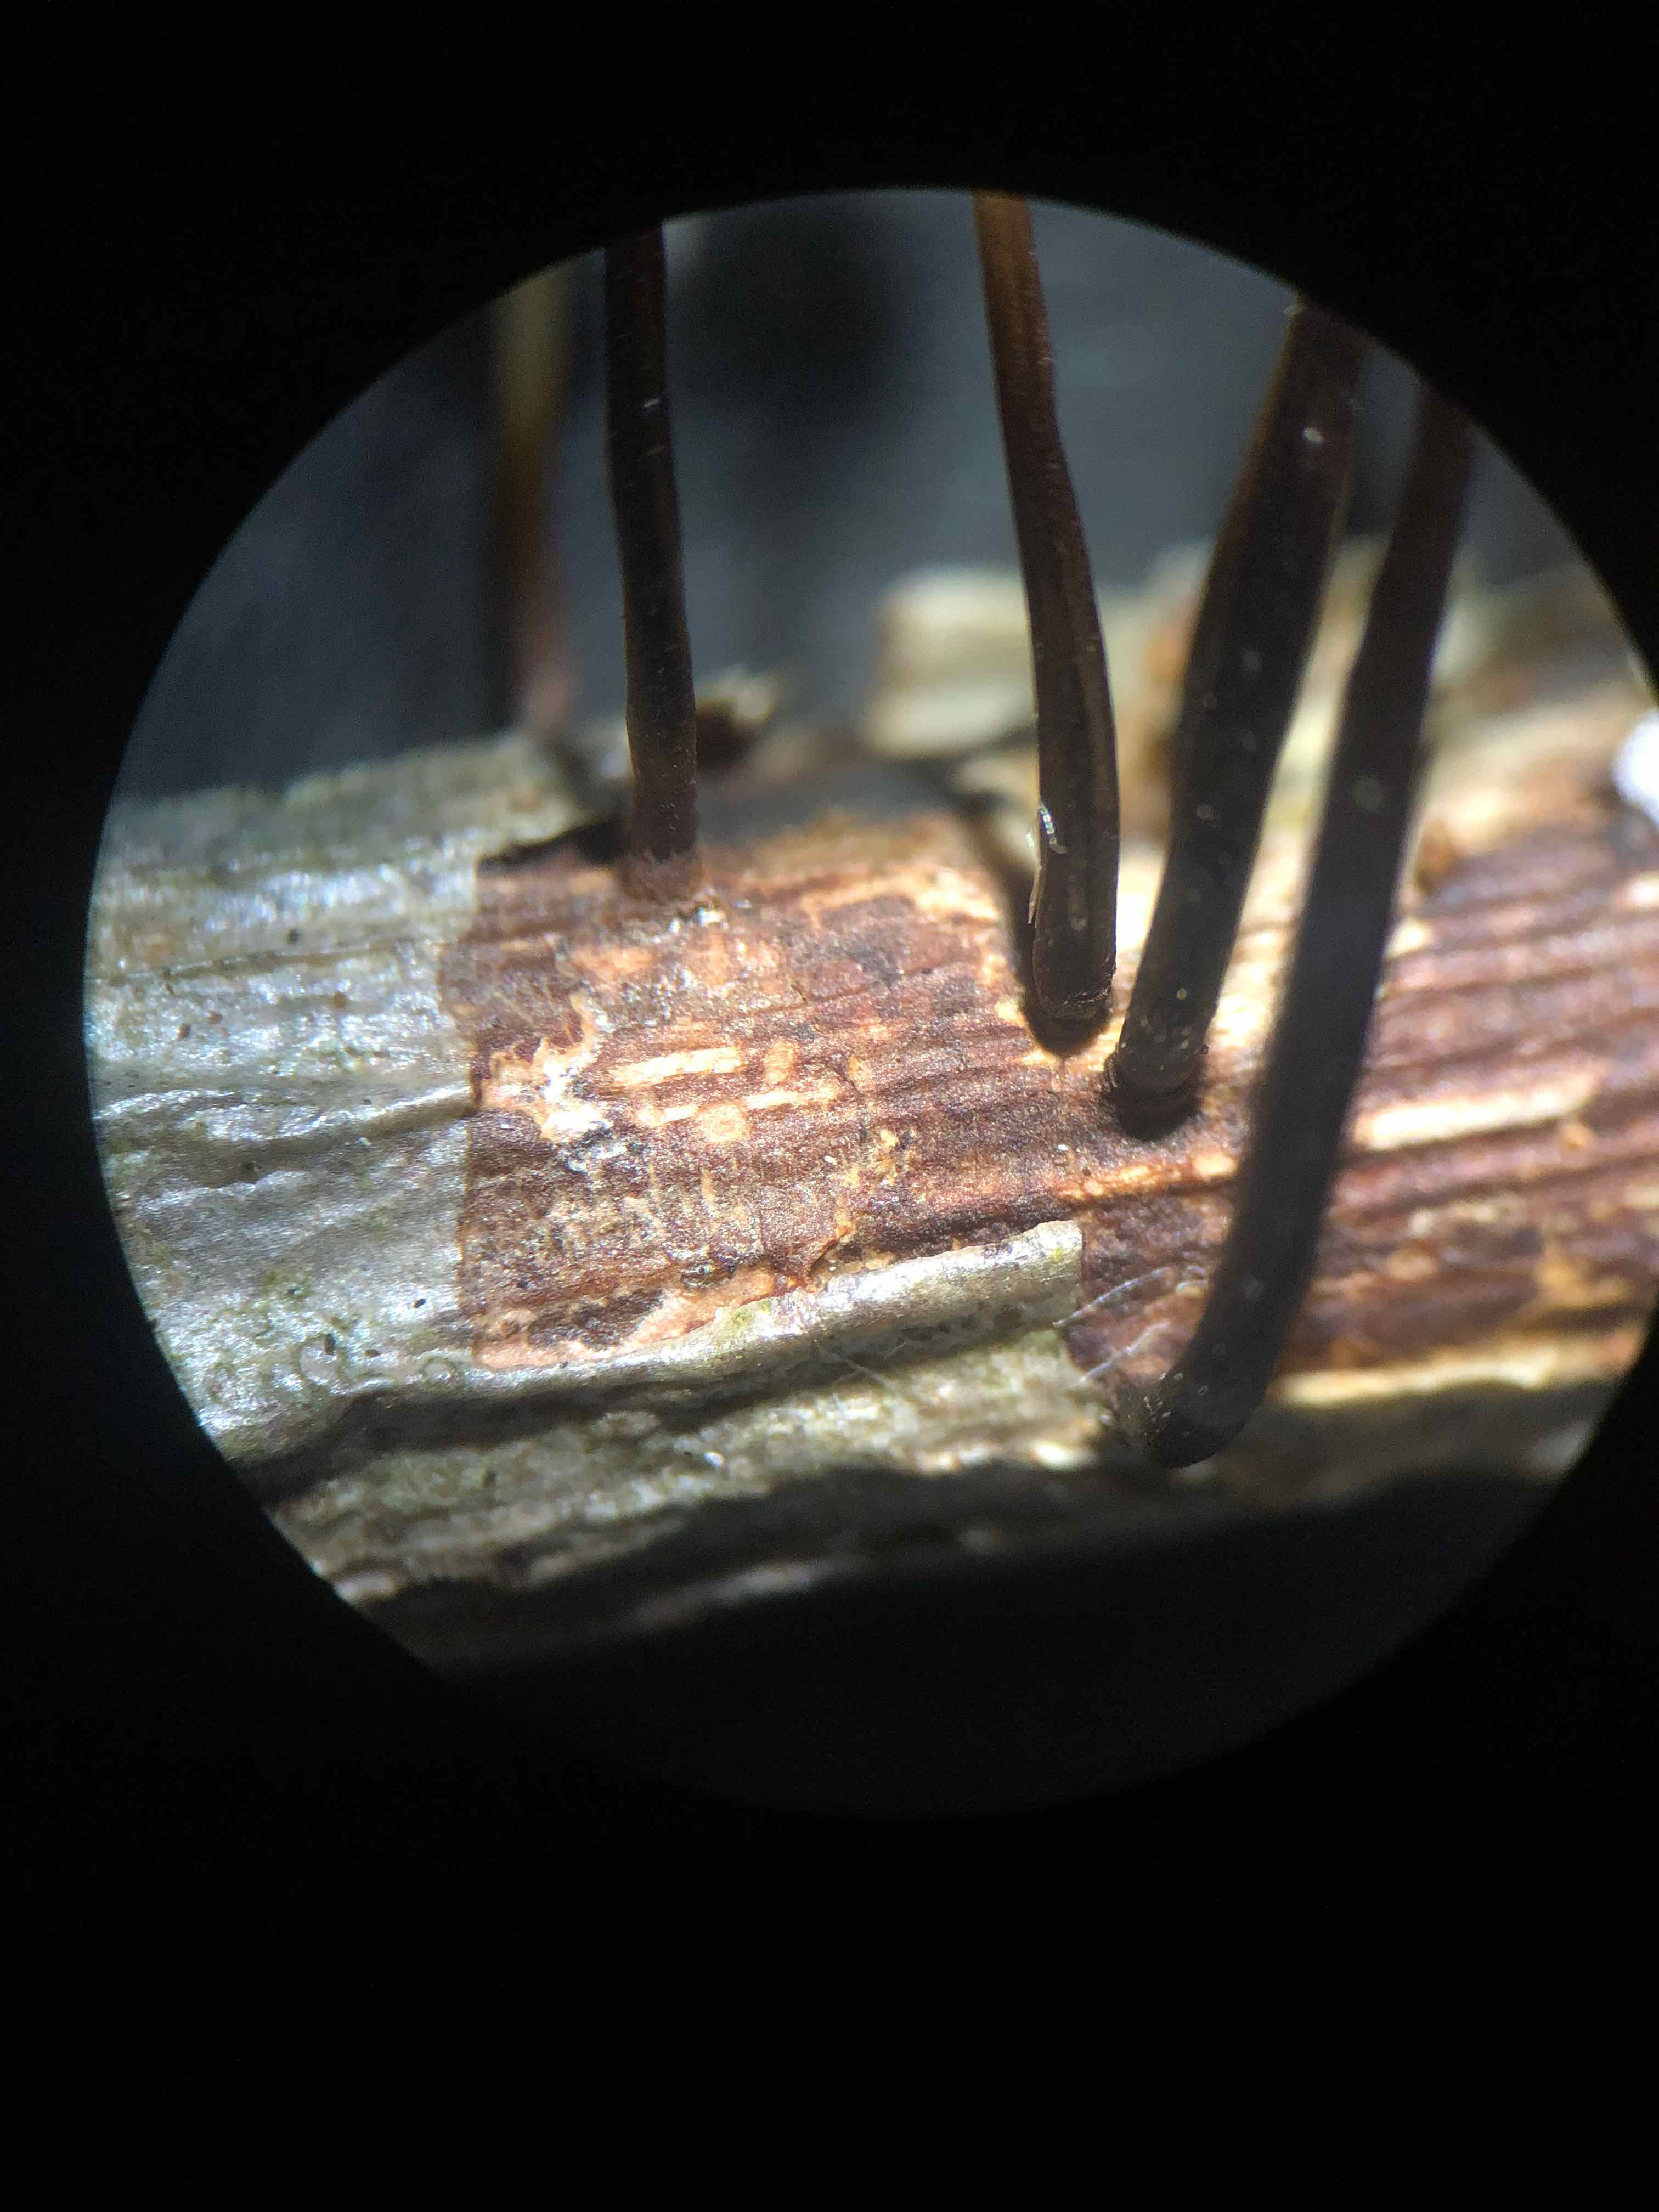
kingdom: Fungi
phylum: Basidiomycota
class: Agaricomycetes
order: Agaricales
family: Marasmiaceae
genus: Marasmius
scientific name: Marasmius rotula
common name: hjul-bruskhat
